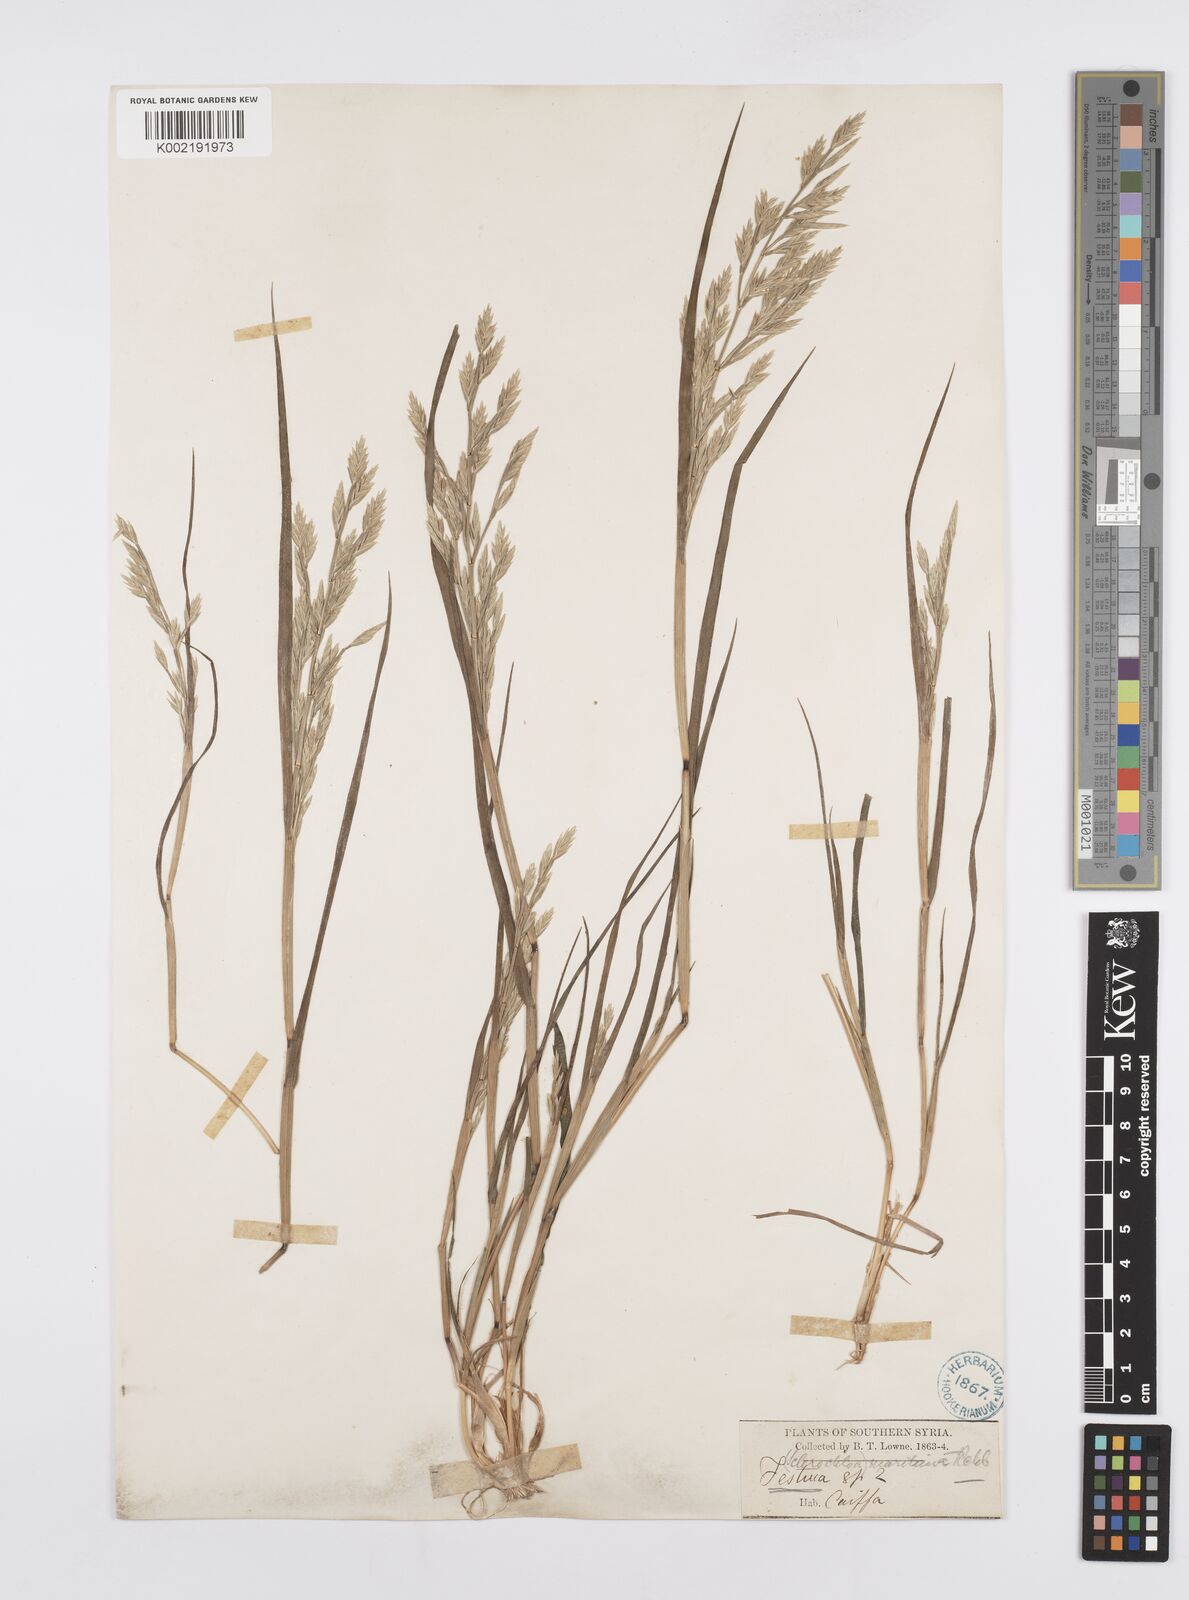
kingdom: Plantae
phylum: Tracheophyta
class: Liliopsida
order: Poales
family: Poaceae
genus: Cutandia
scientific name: Cutandia maritima
